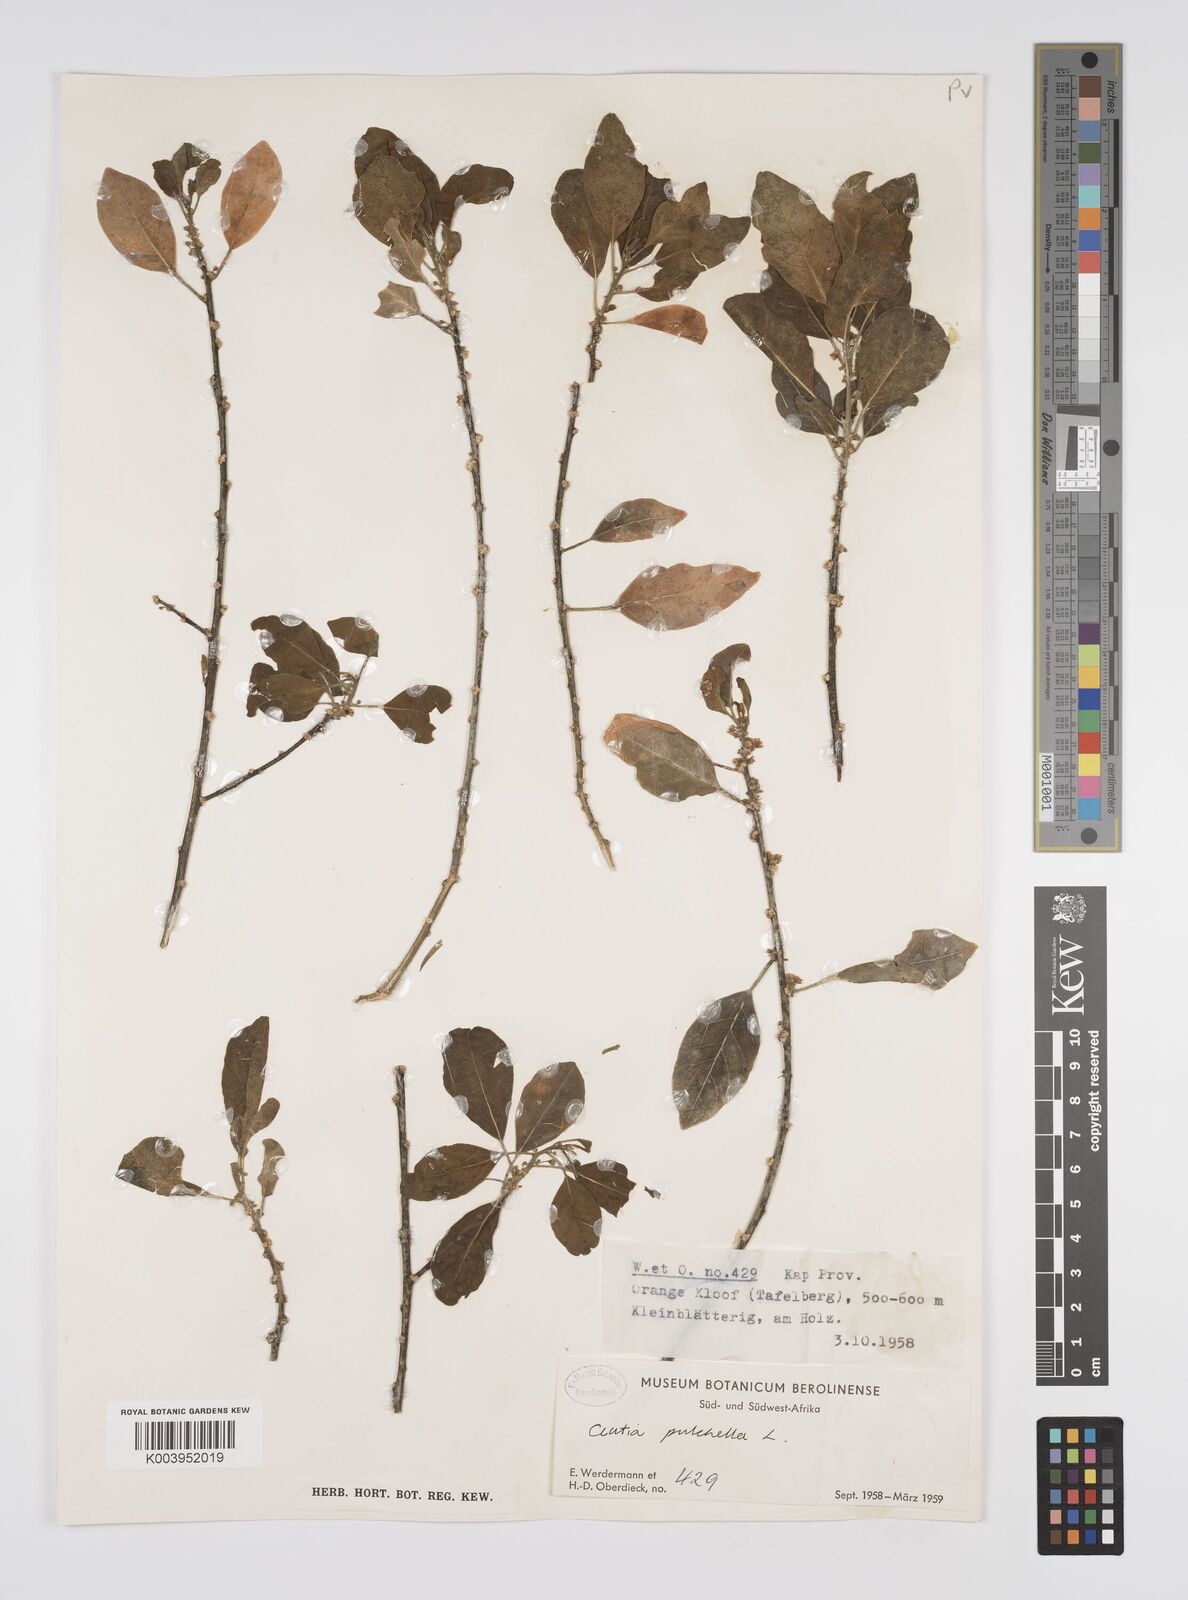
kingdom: Plantae
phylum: Tracheophyta
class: Magnoliopsida
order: Malpighiales
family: Peraceae
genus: Clutia
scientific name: Clutia pulchella
